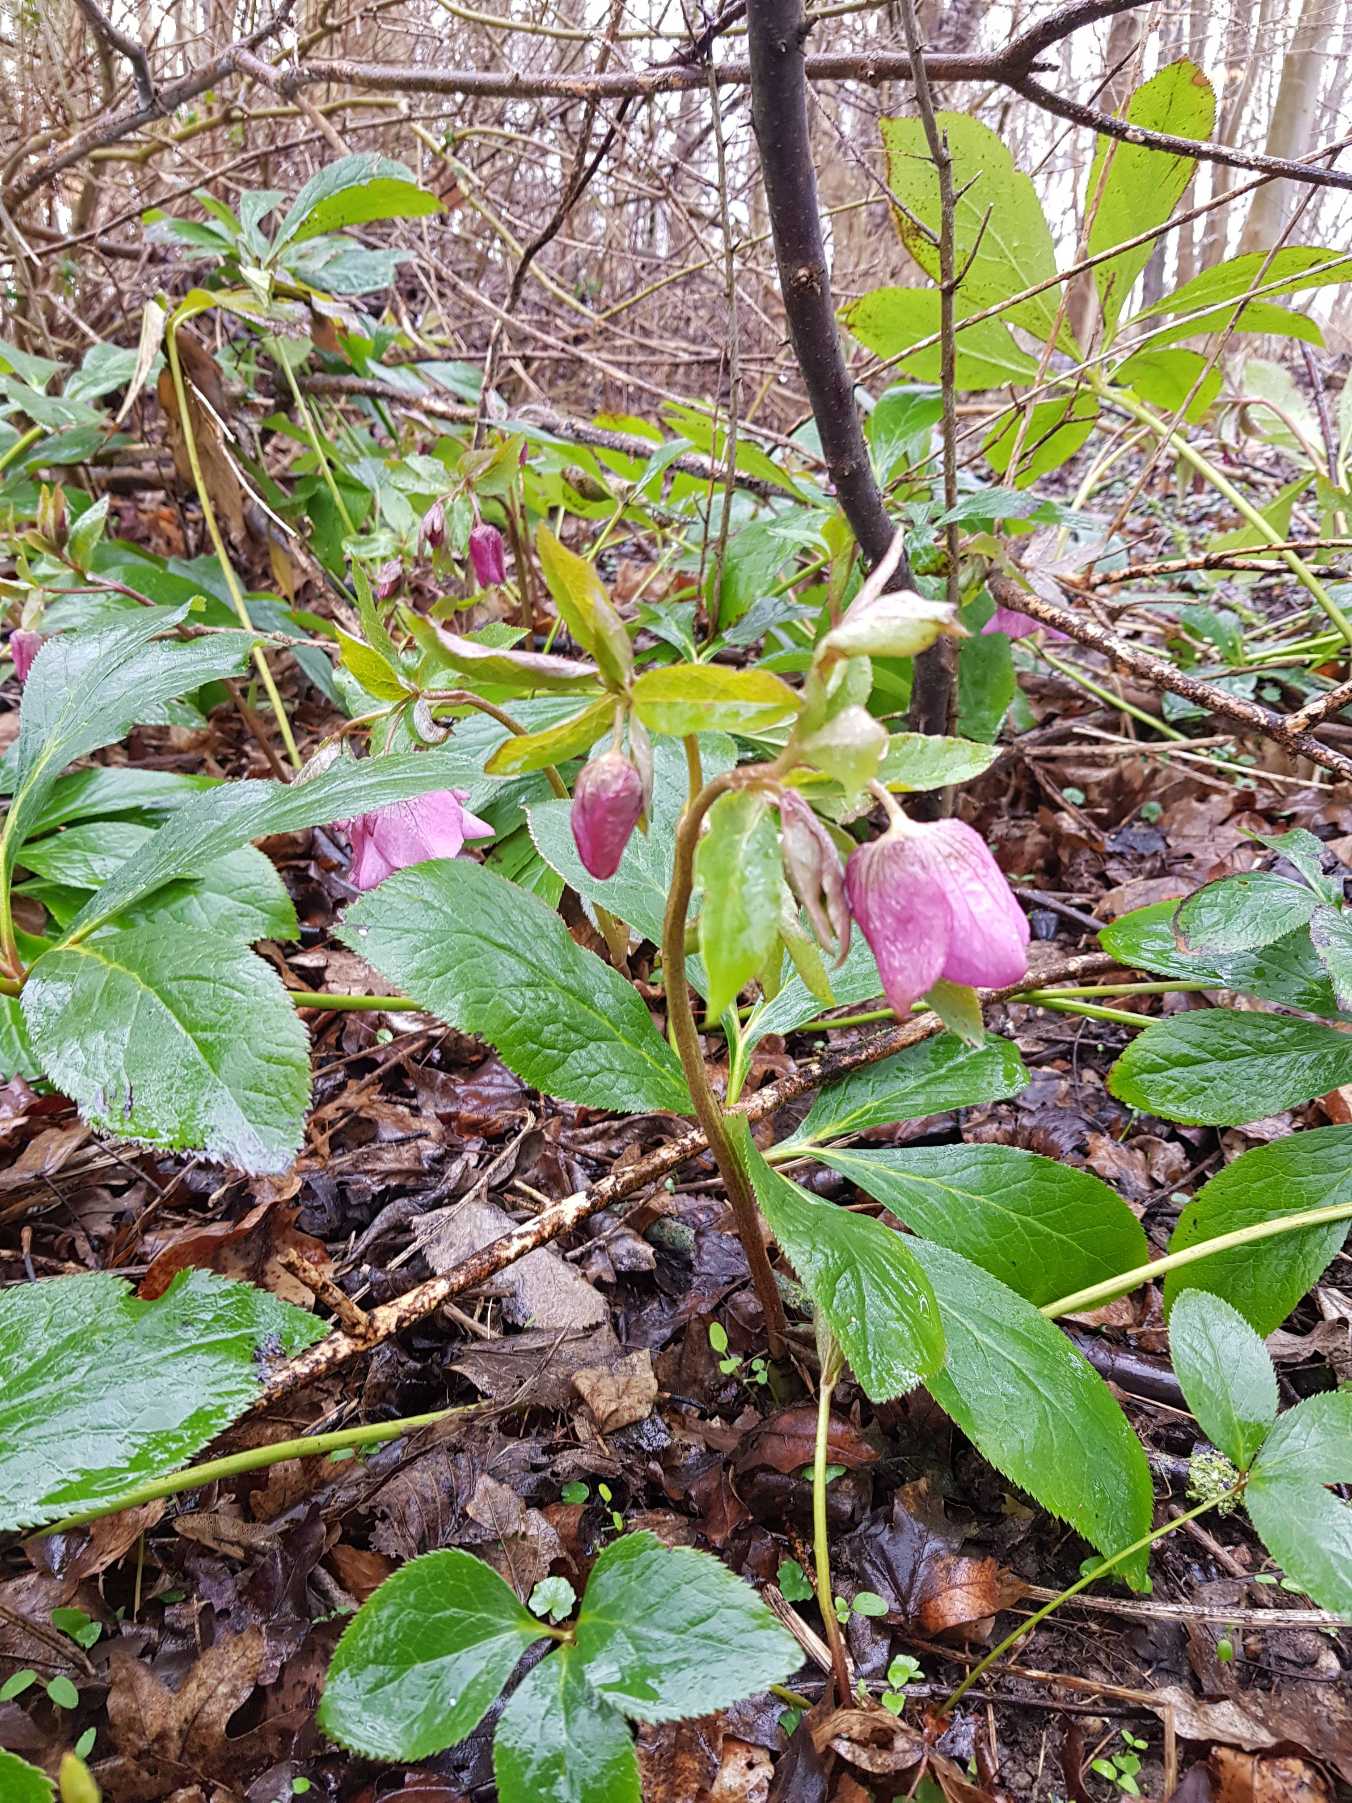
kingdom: Plantae
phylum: Tracheophyta
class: Magnoliopsida
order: Ranunculales
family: Ranunculaceae
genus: Helleborus
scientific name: Helleborus orientalis
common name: Rød julerose
